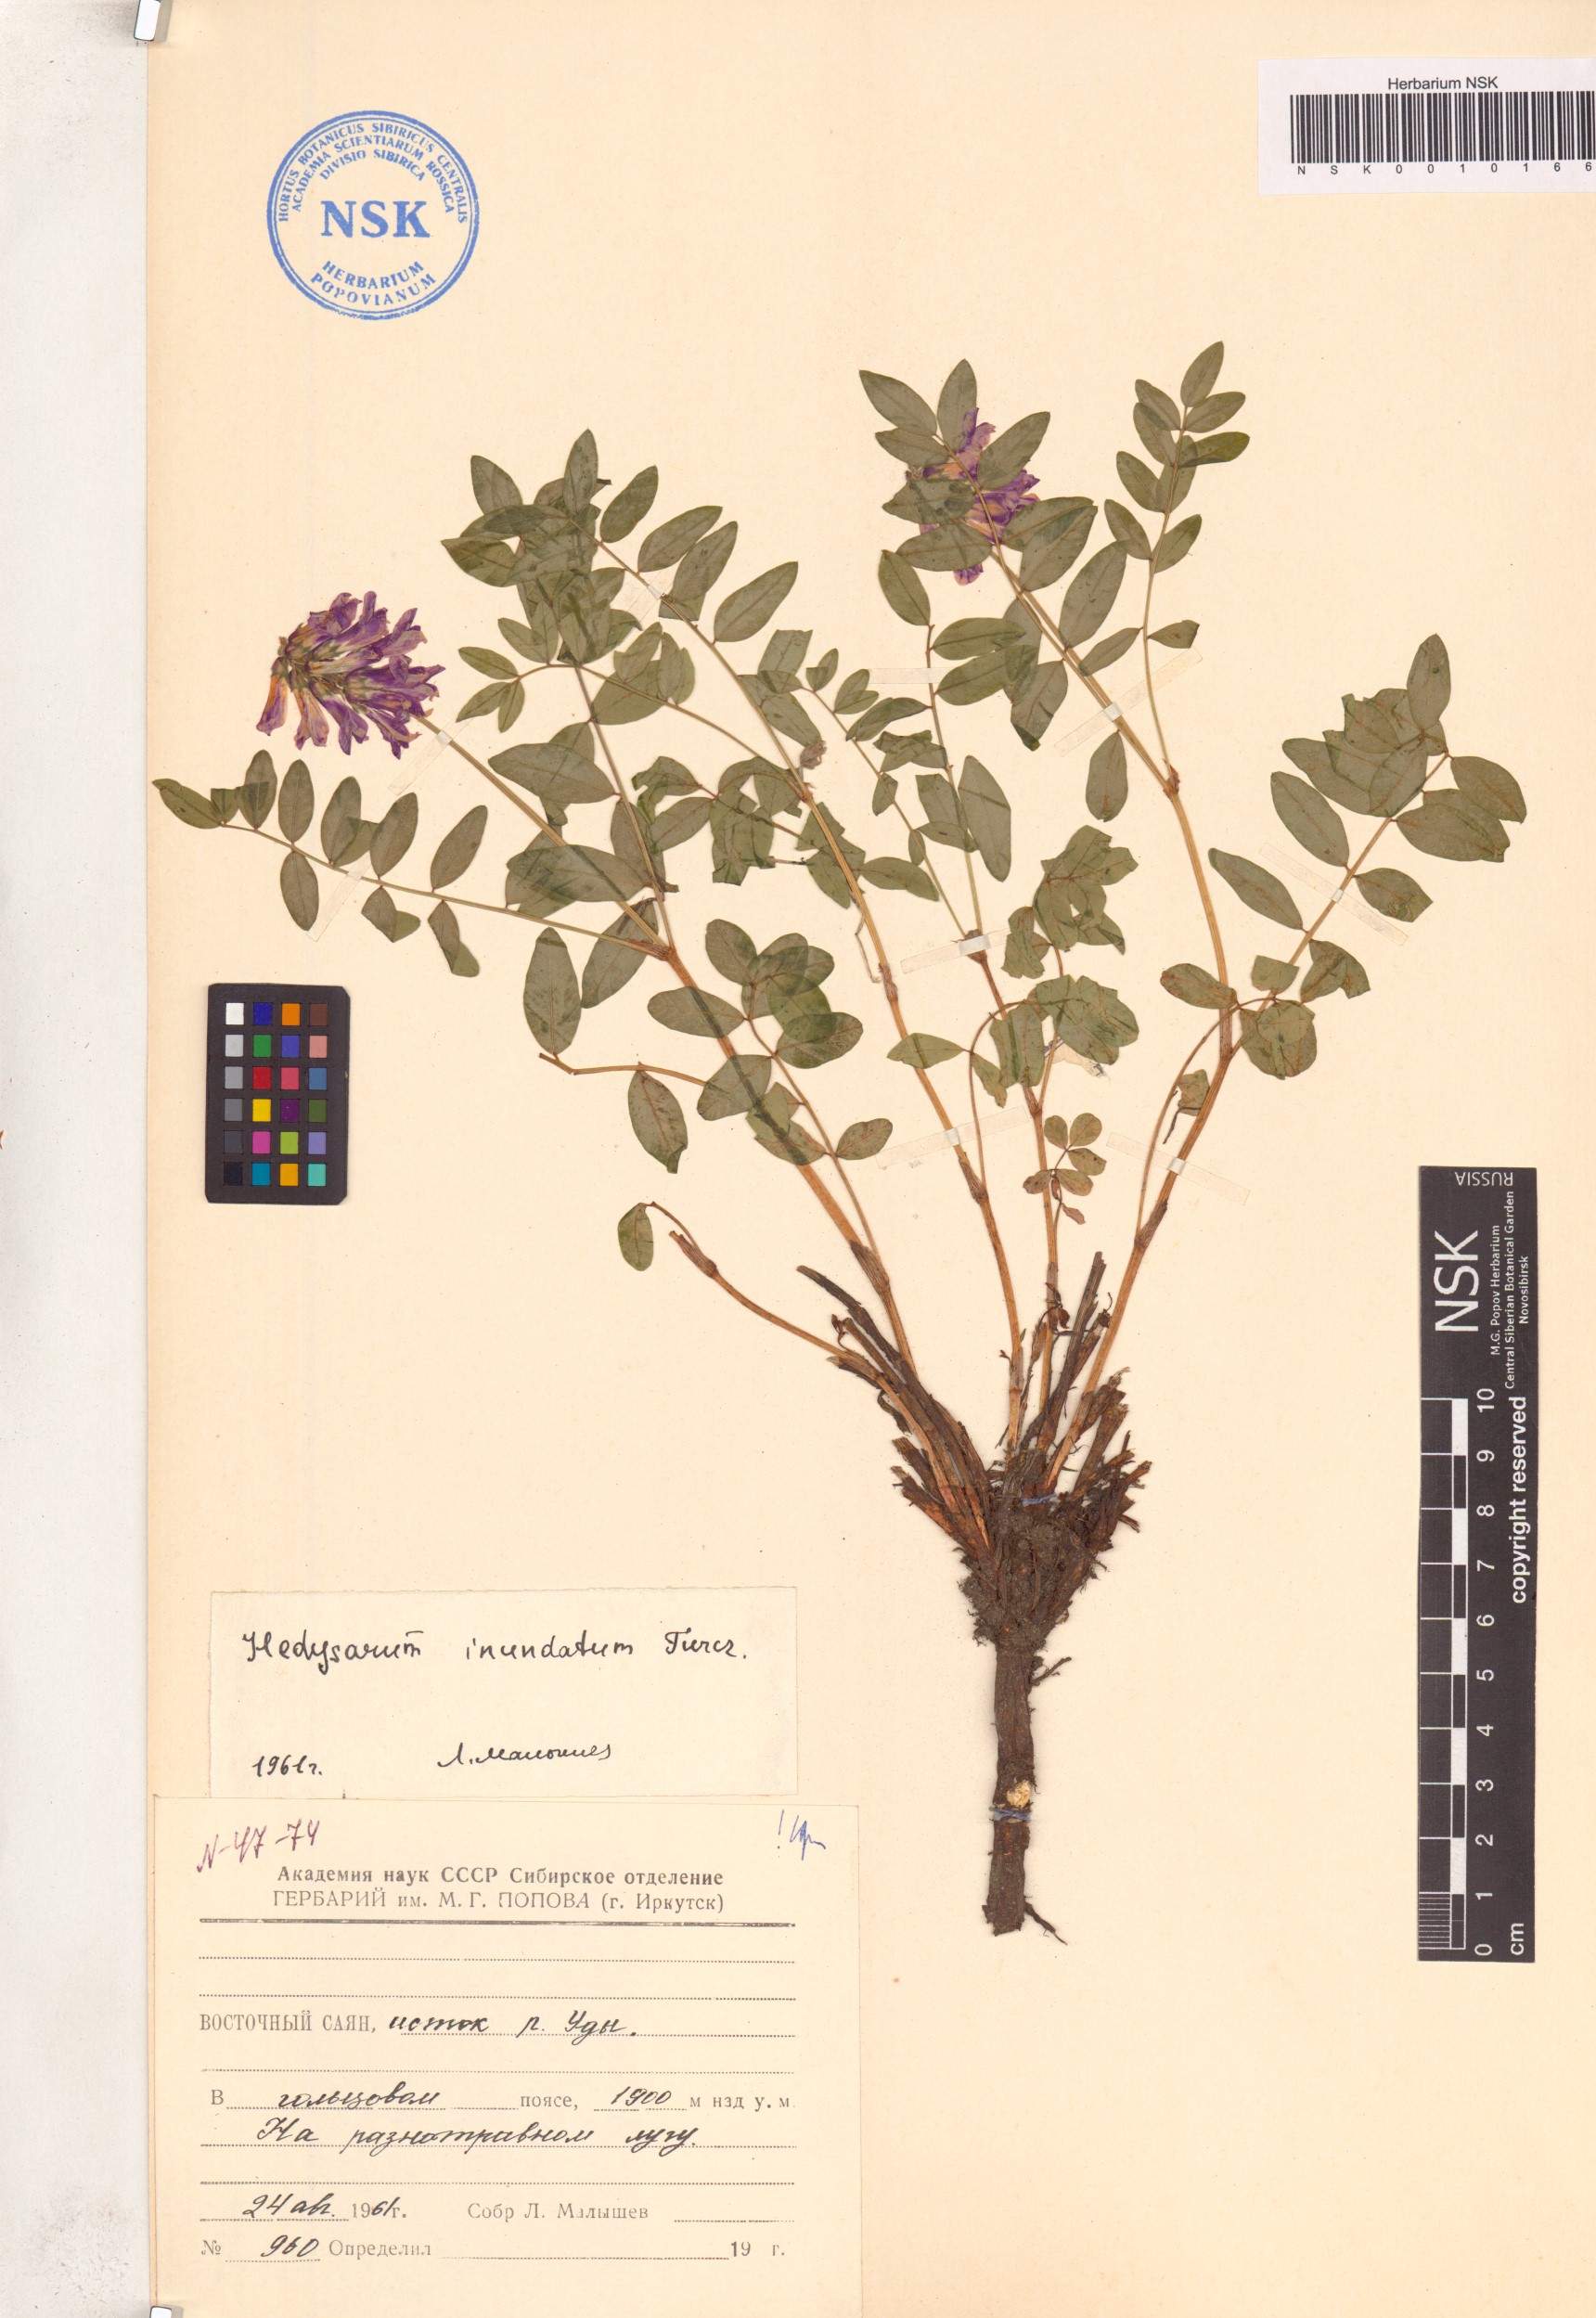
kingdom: Plantae
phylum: Tracheophyta
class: Magnoliopsida
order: Fabales
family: Fabaceae
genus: Hedysarum
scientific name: Hedysarum inundatum
